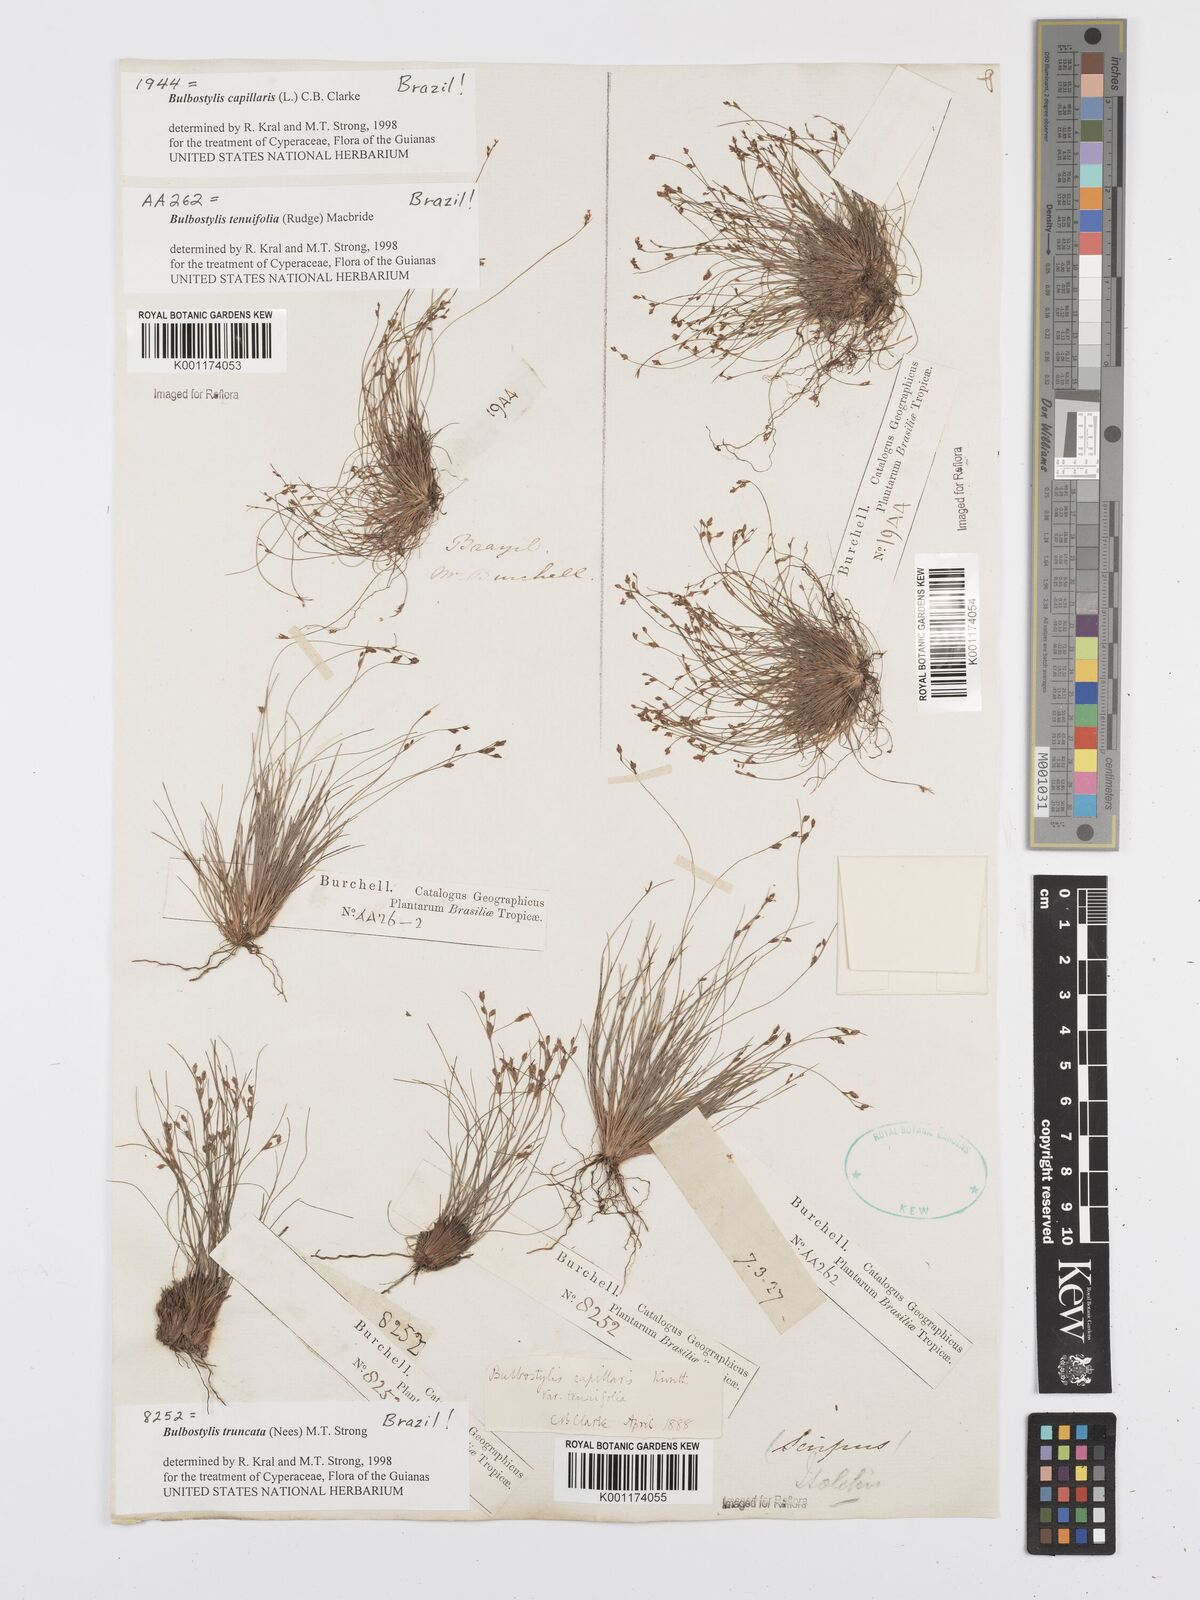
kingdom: Plantae
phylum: Tracheophyta
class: Liliopsida
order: Poales
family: Cyperaceae
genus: Bulbostylis
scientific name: Bulbostylis truncata
